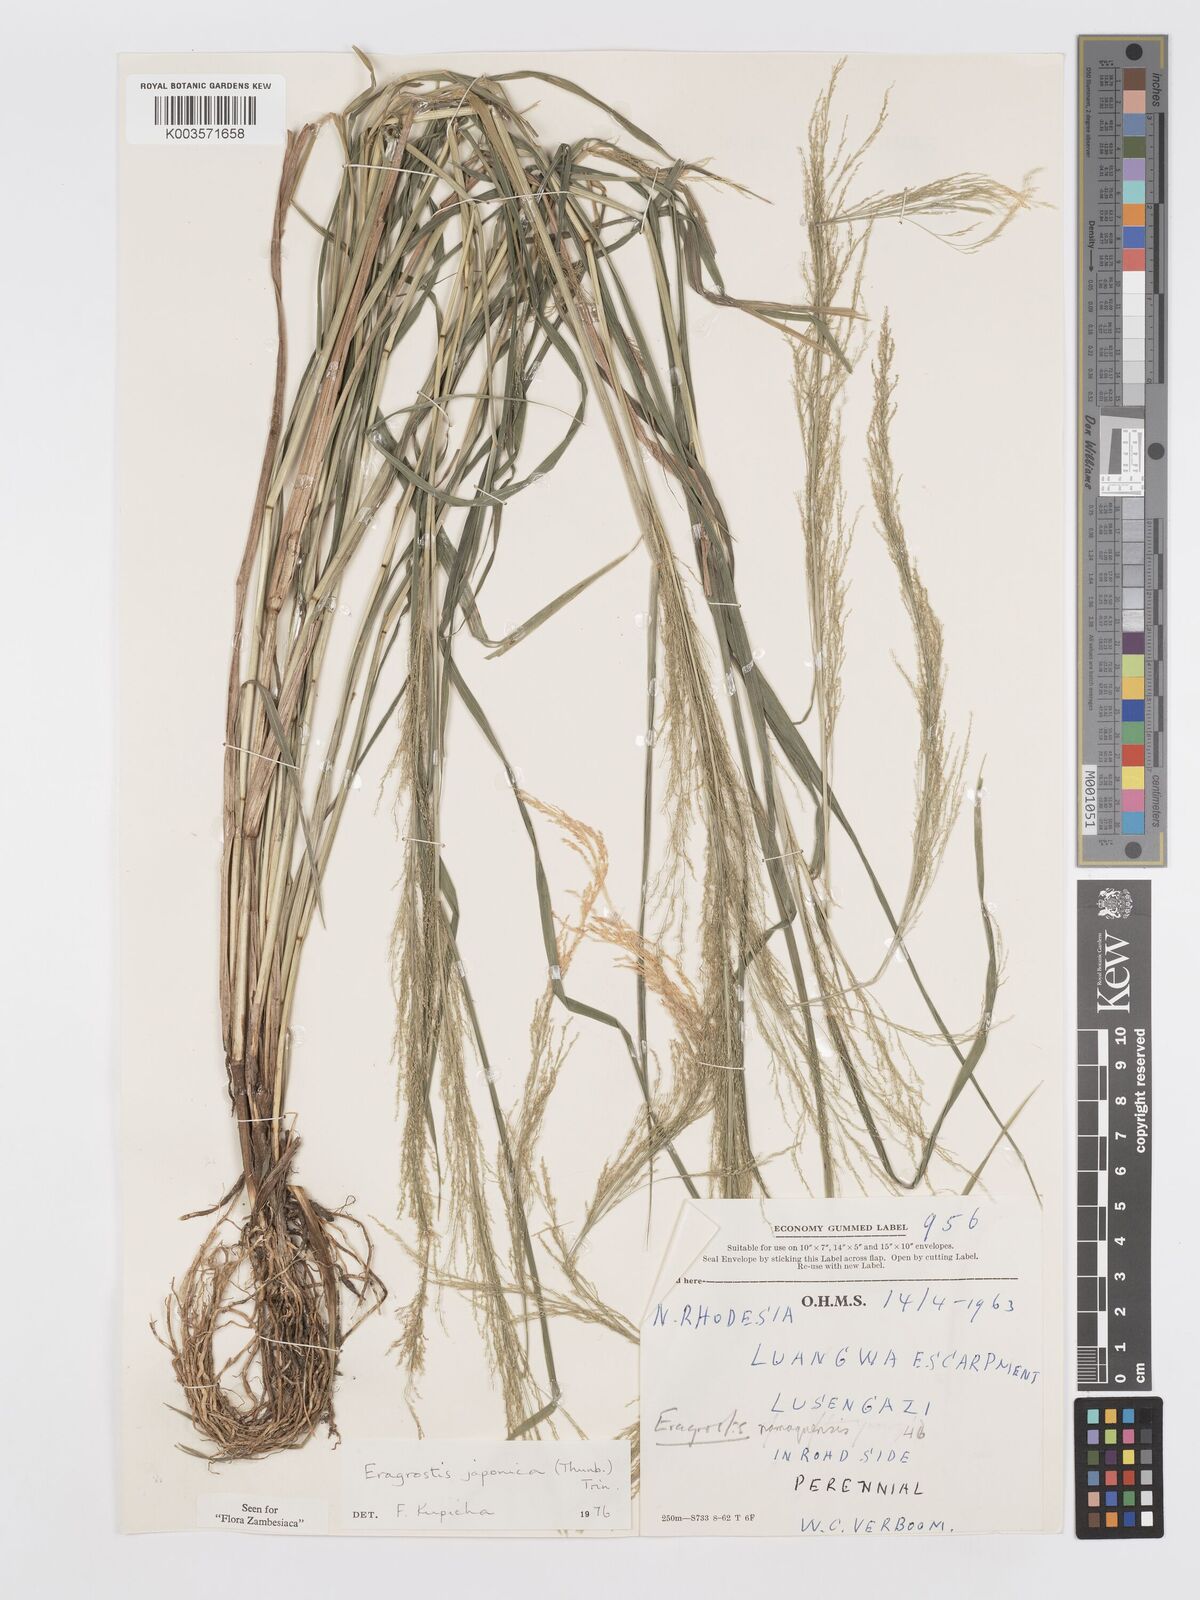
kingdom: Plantae
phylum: Tracheophyta
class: Liliopsida
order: Poales
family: Poaceae
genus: Eragrostis
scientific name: Eragrostis japonica
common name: Pond lovegrass
